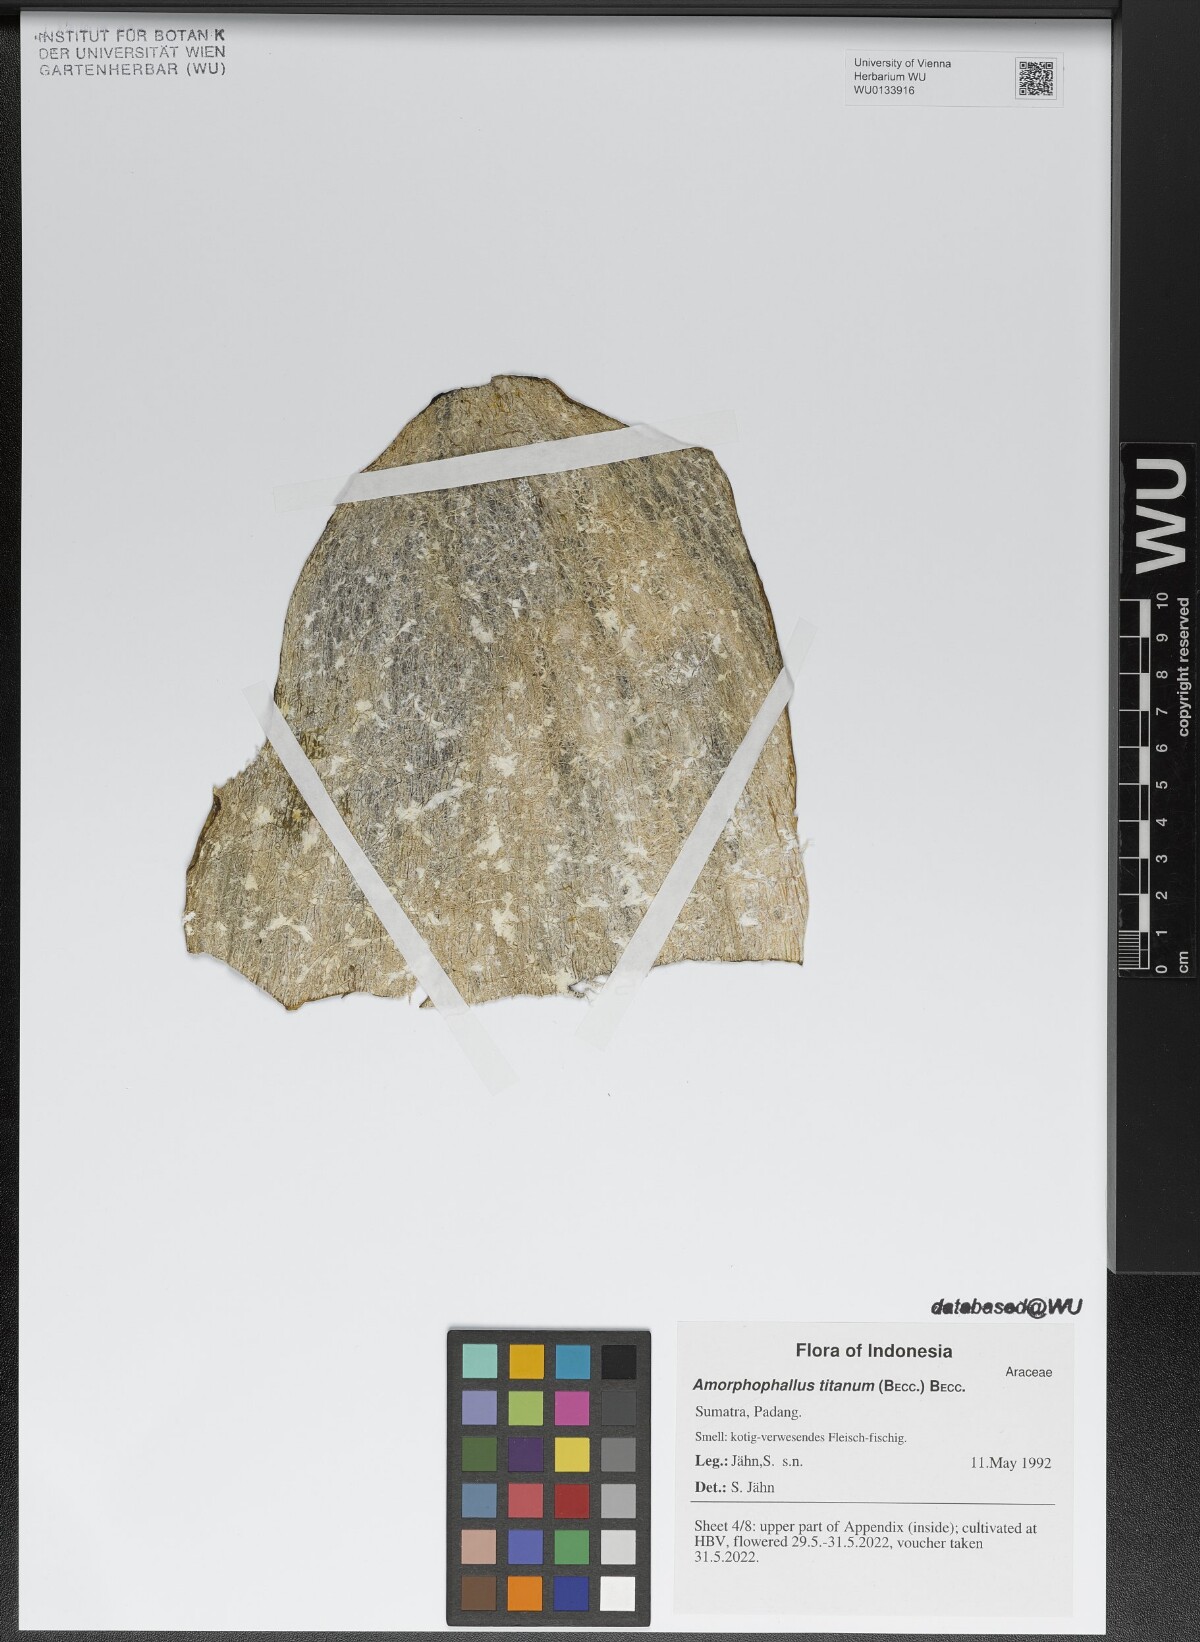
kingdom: Plantae
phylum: Tracheophyta
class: Liliopsida
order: Alismatales
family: Araceae
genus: Amorphophallus
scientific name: Amorphophallus titanum
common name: Titan arum
